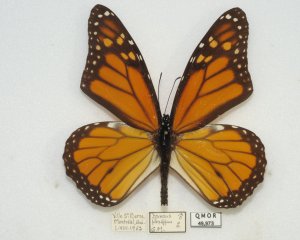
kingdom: Animalia
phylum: Arthropoda
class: Insecta
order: Lepidoptera
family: Nymphalidae
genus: Danaus
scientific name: Danaus plexippus
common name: Monarch
